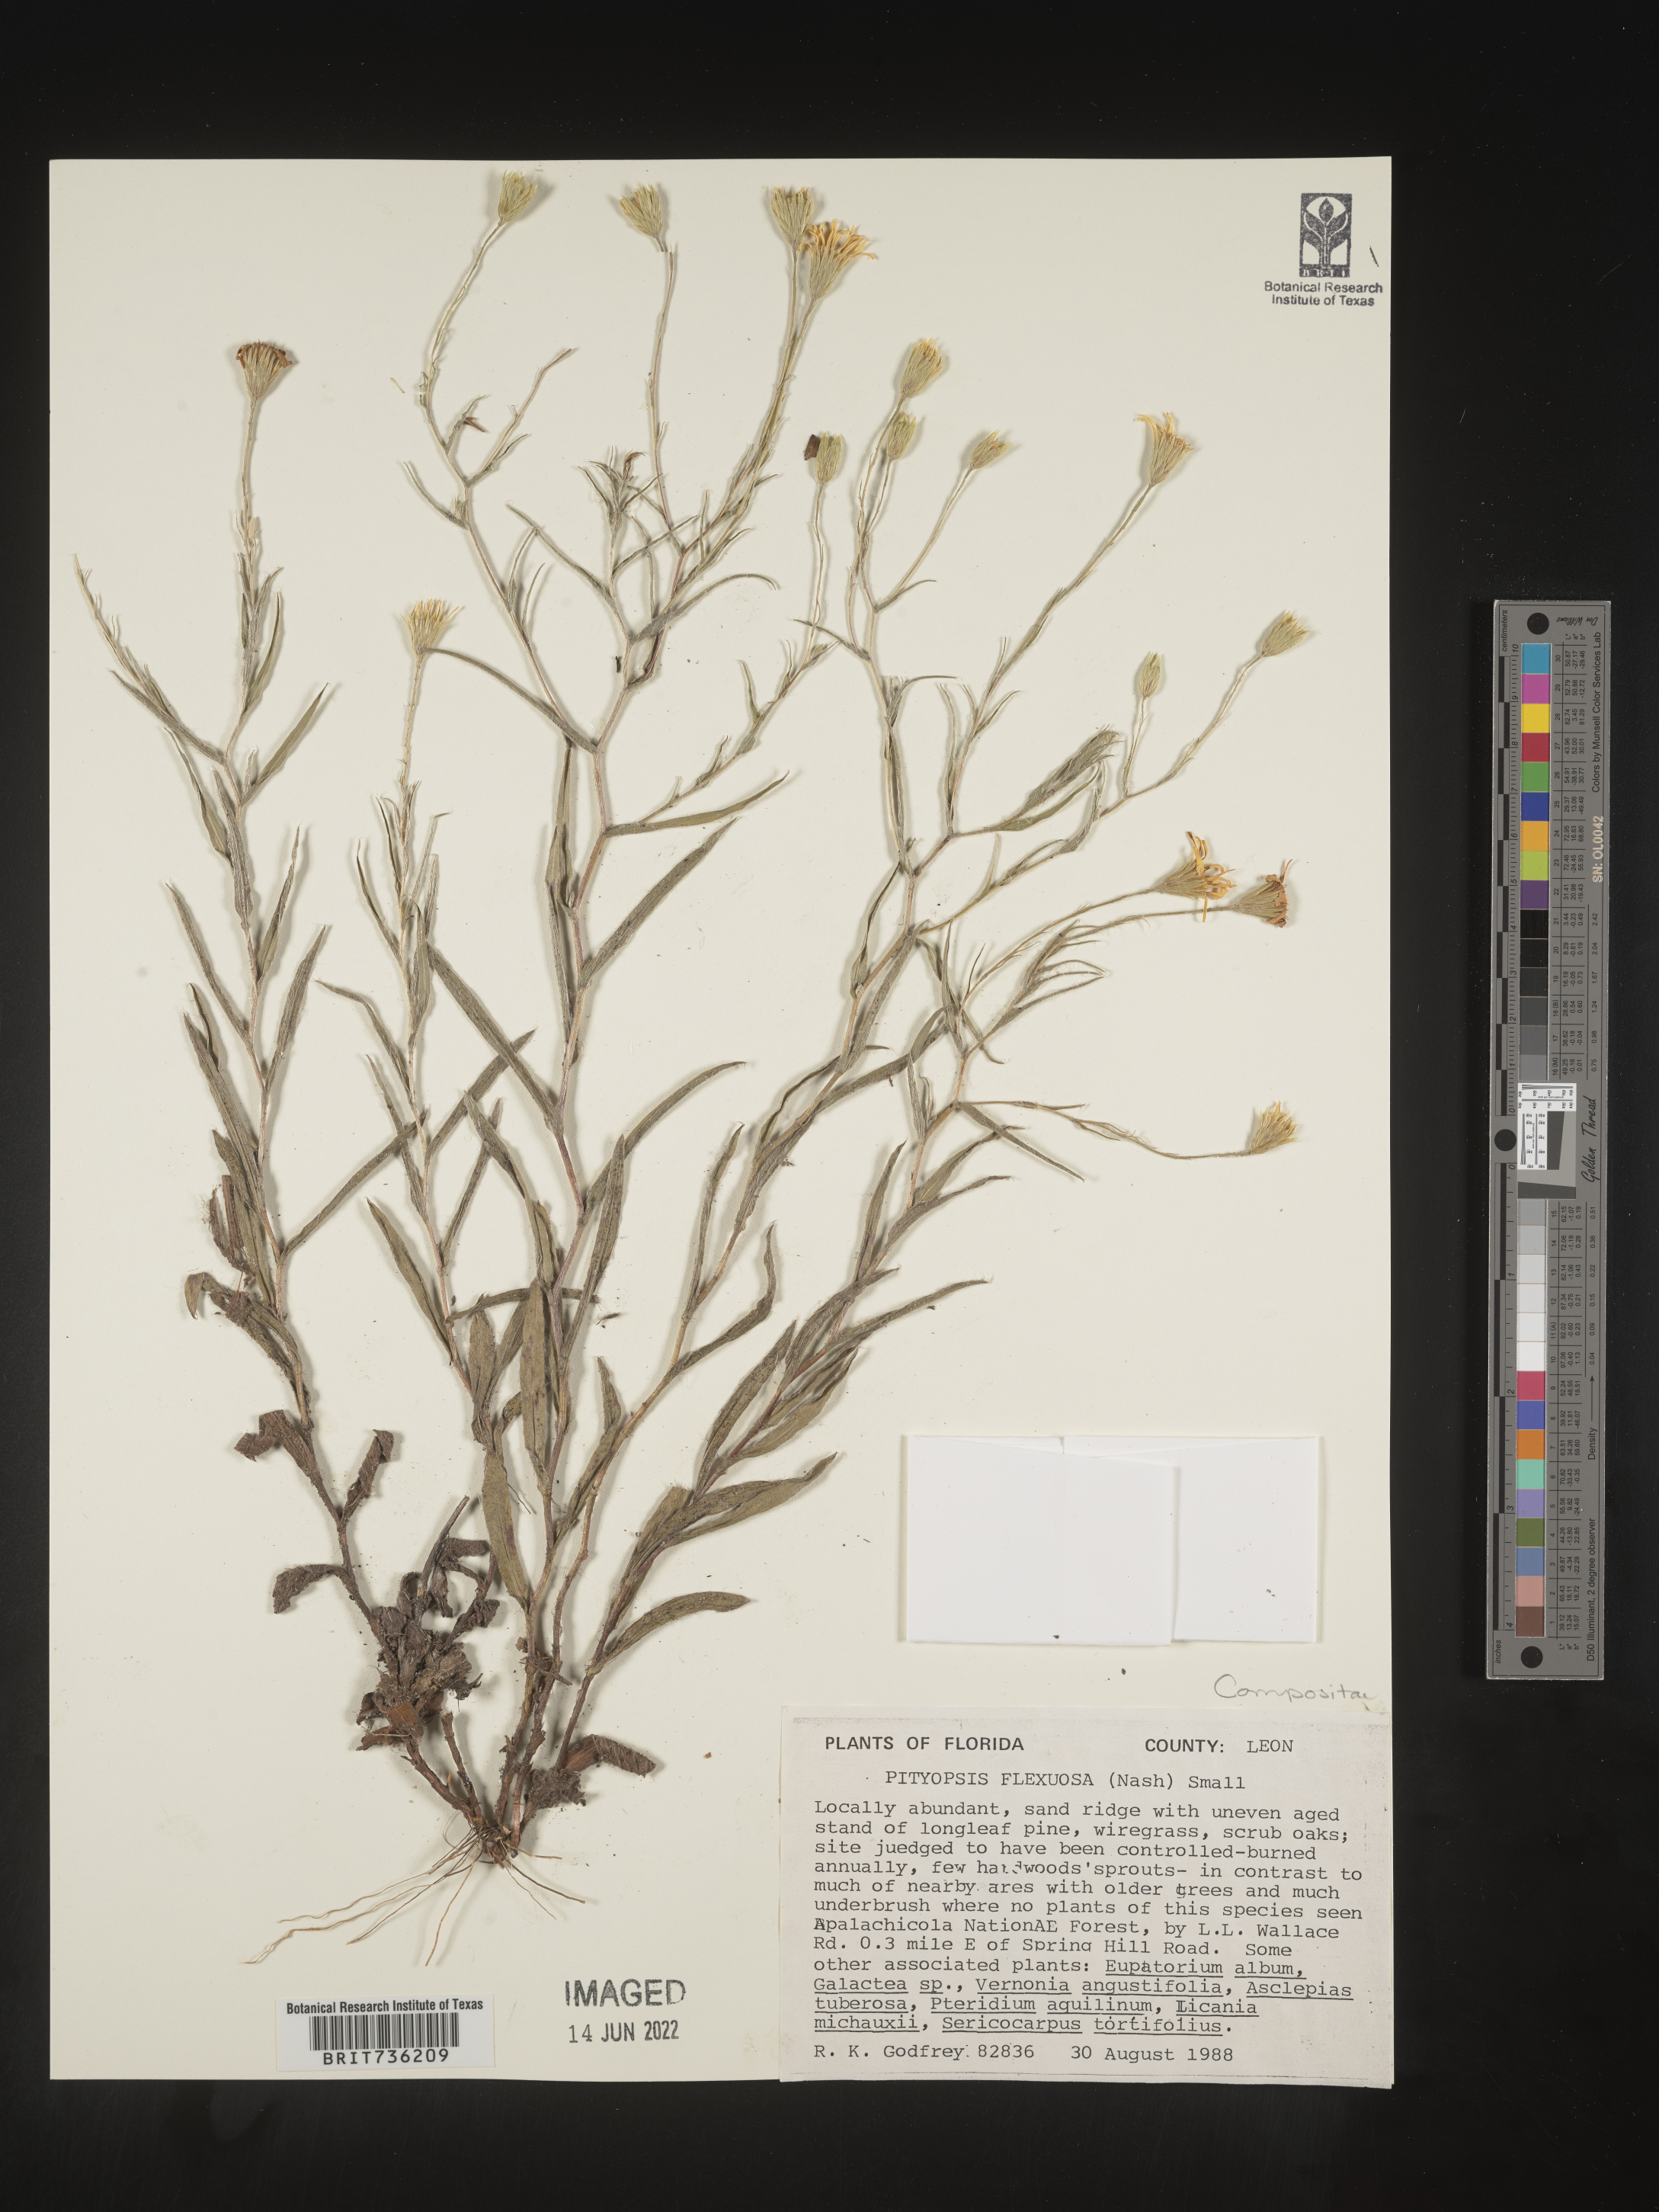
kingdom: Plantae
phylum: Tracheophyta
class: Magnoliopsida
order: Asterales
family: Asteraceae
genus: Pityopsis
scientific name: Pityopsis flexuosa
